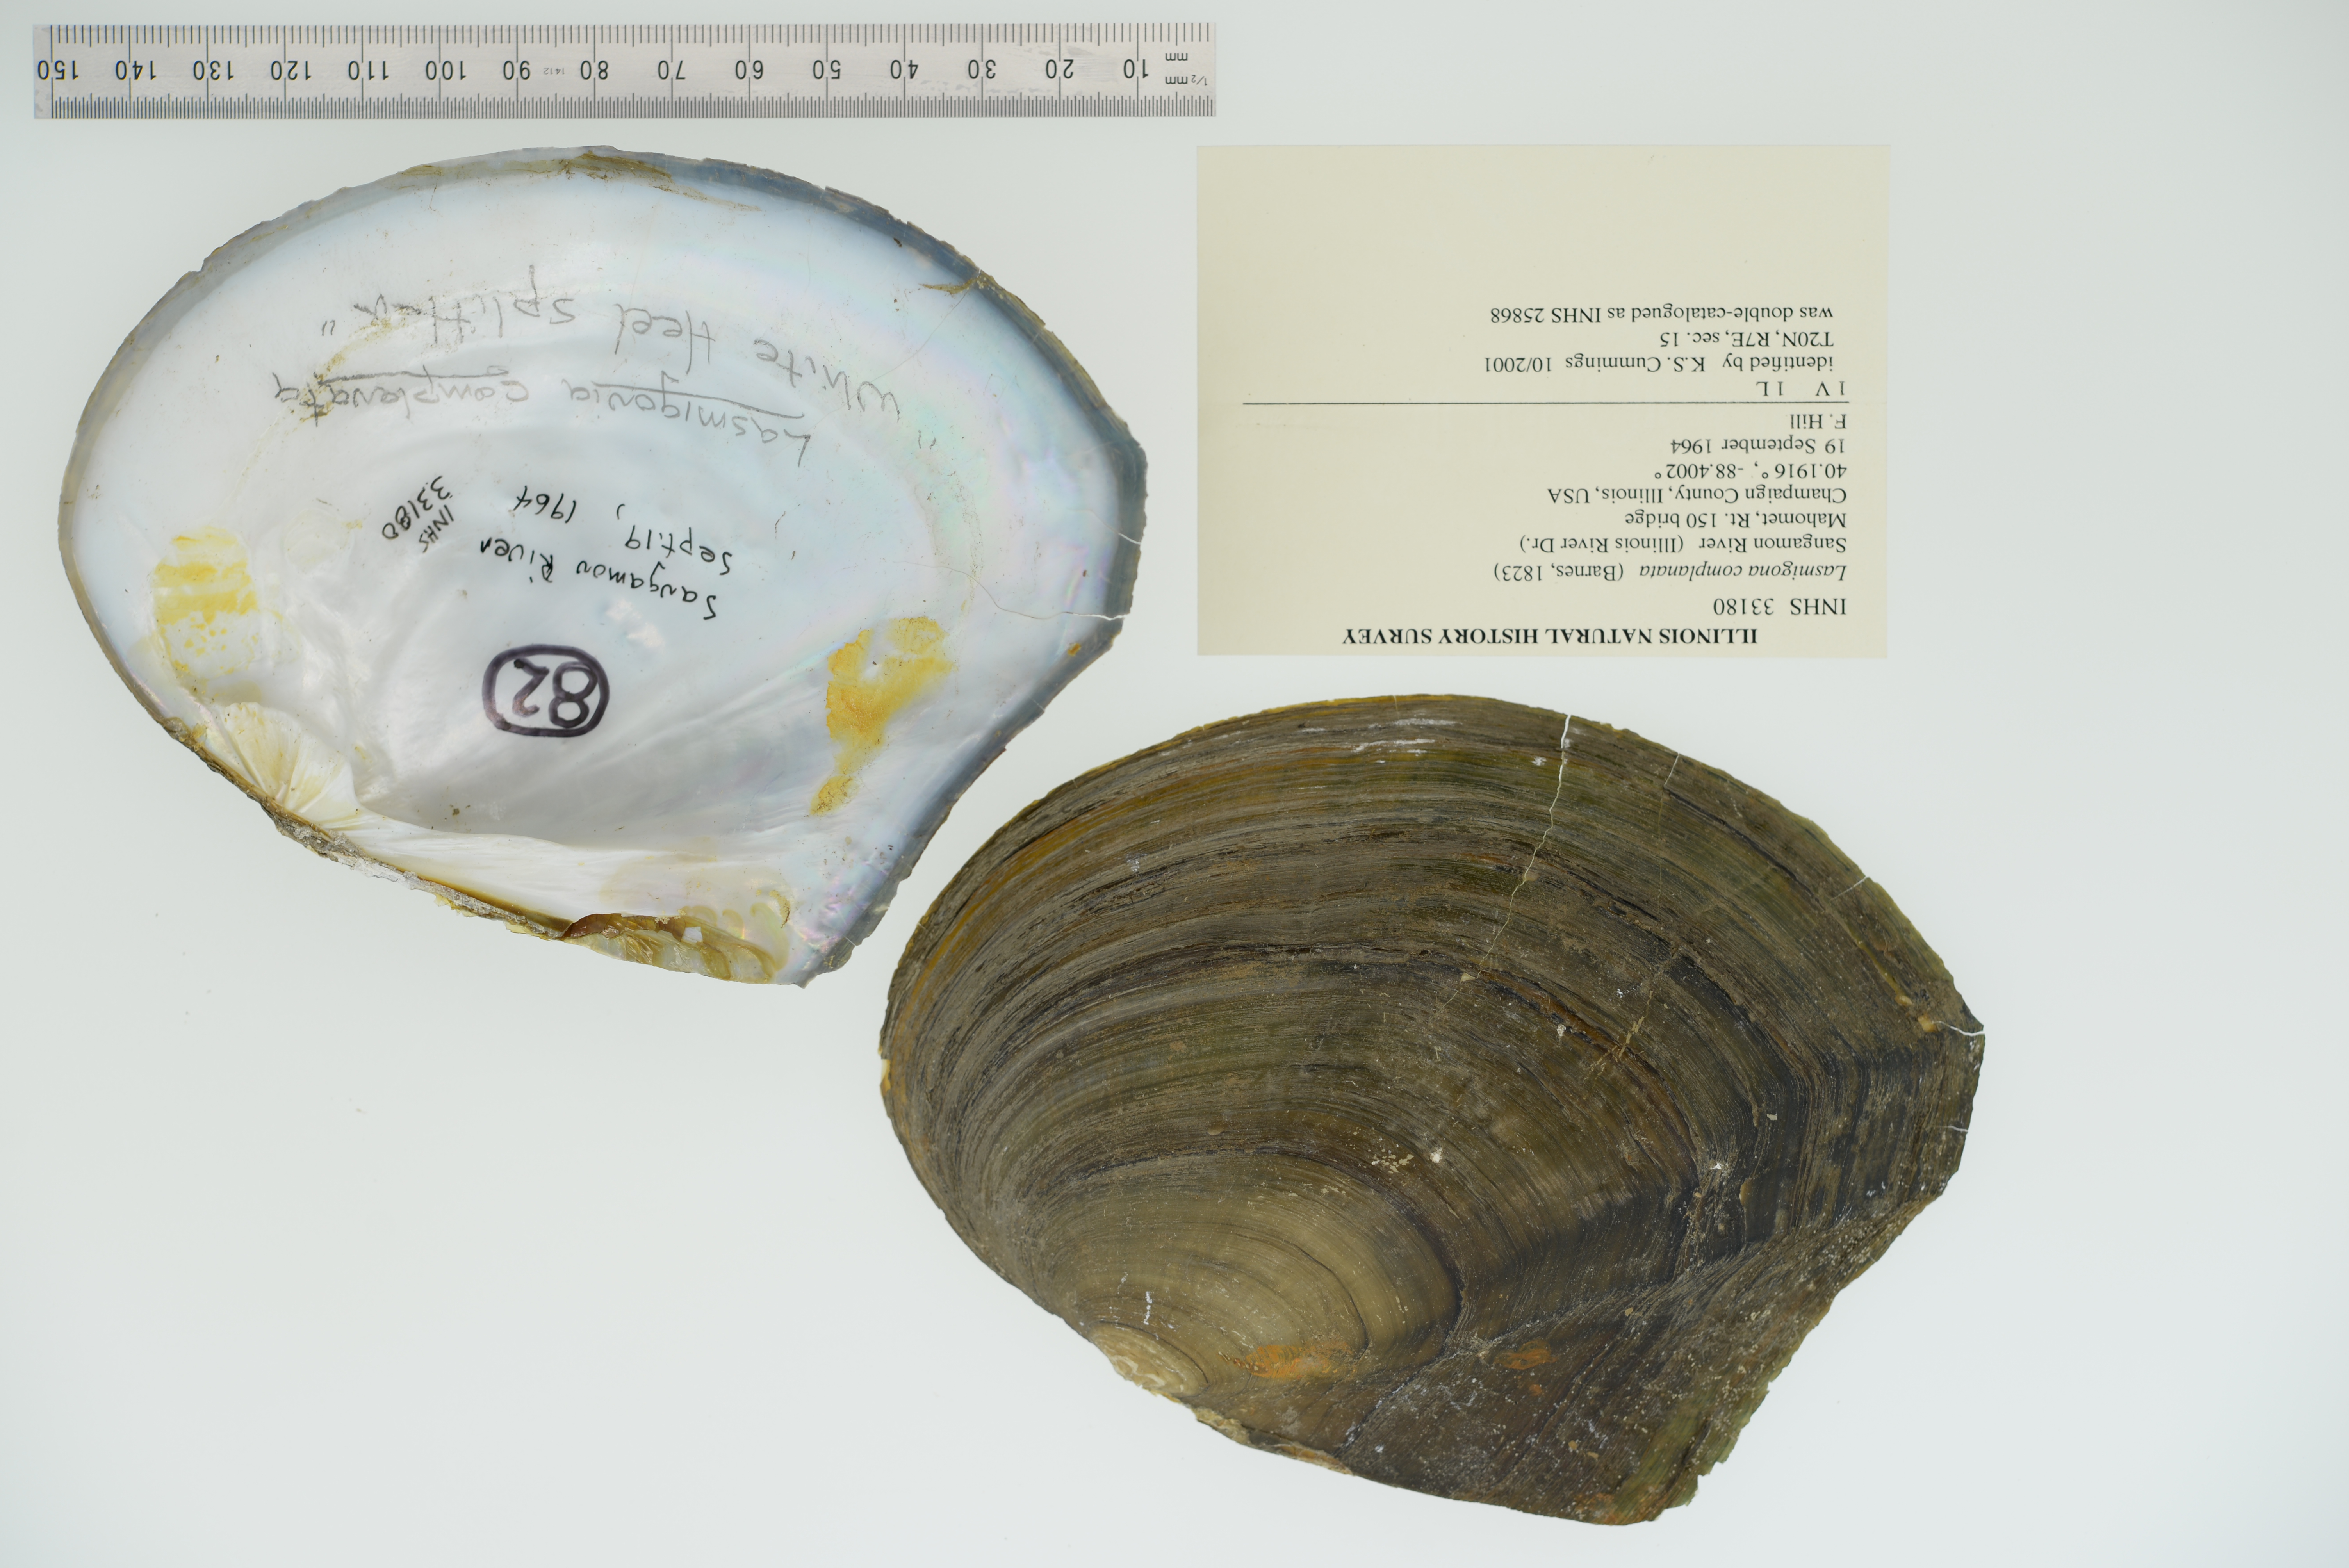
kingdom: Animalia
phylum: Mollusca
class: Bivalvia
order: Unionida
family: Unionidae
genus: Lasmigona
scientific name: Lasmigona complanata
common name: White heelsplitter
